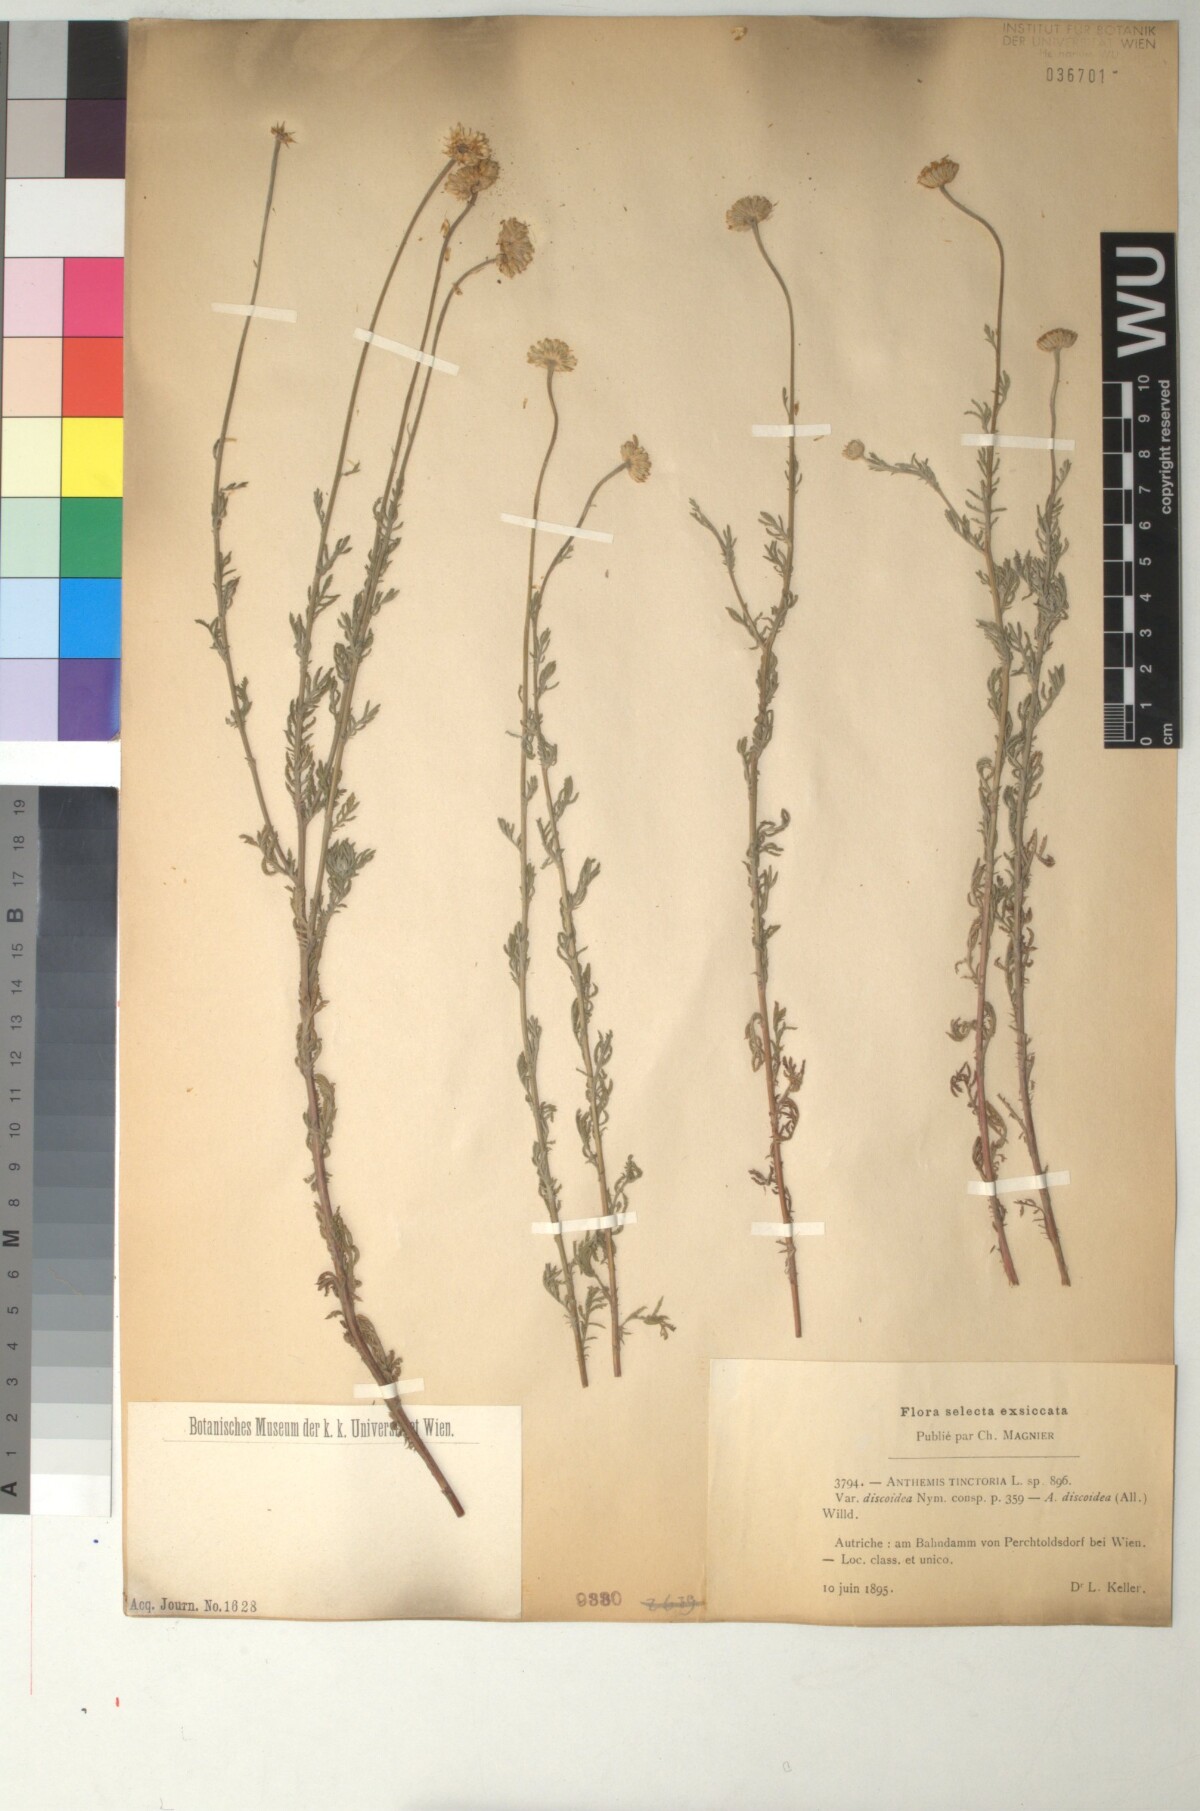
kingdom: Plantae
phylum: Tracheophyta
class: Magnoliopsida
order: Asterales
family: Asteraceae
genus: Cota
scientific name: Cota tinctoria
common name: Golden chamomile
